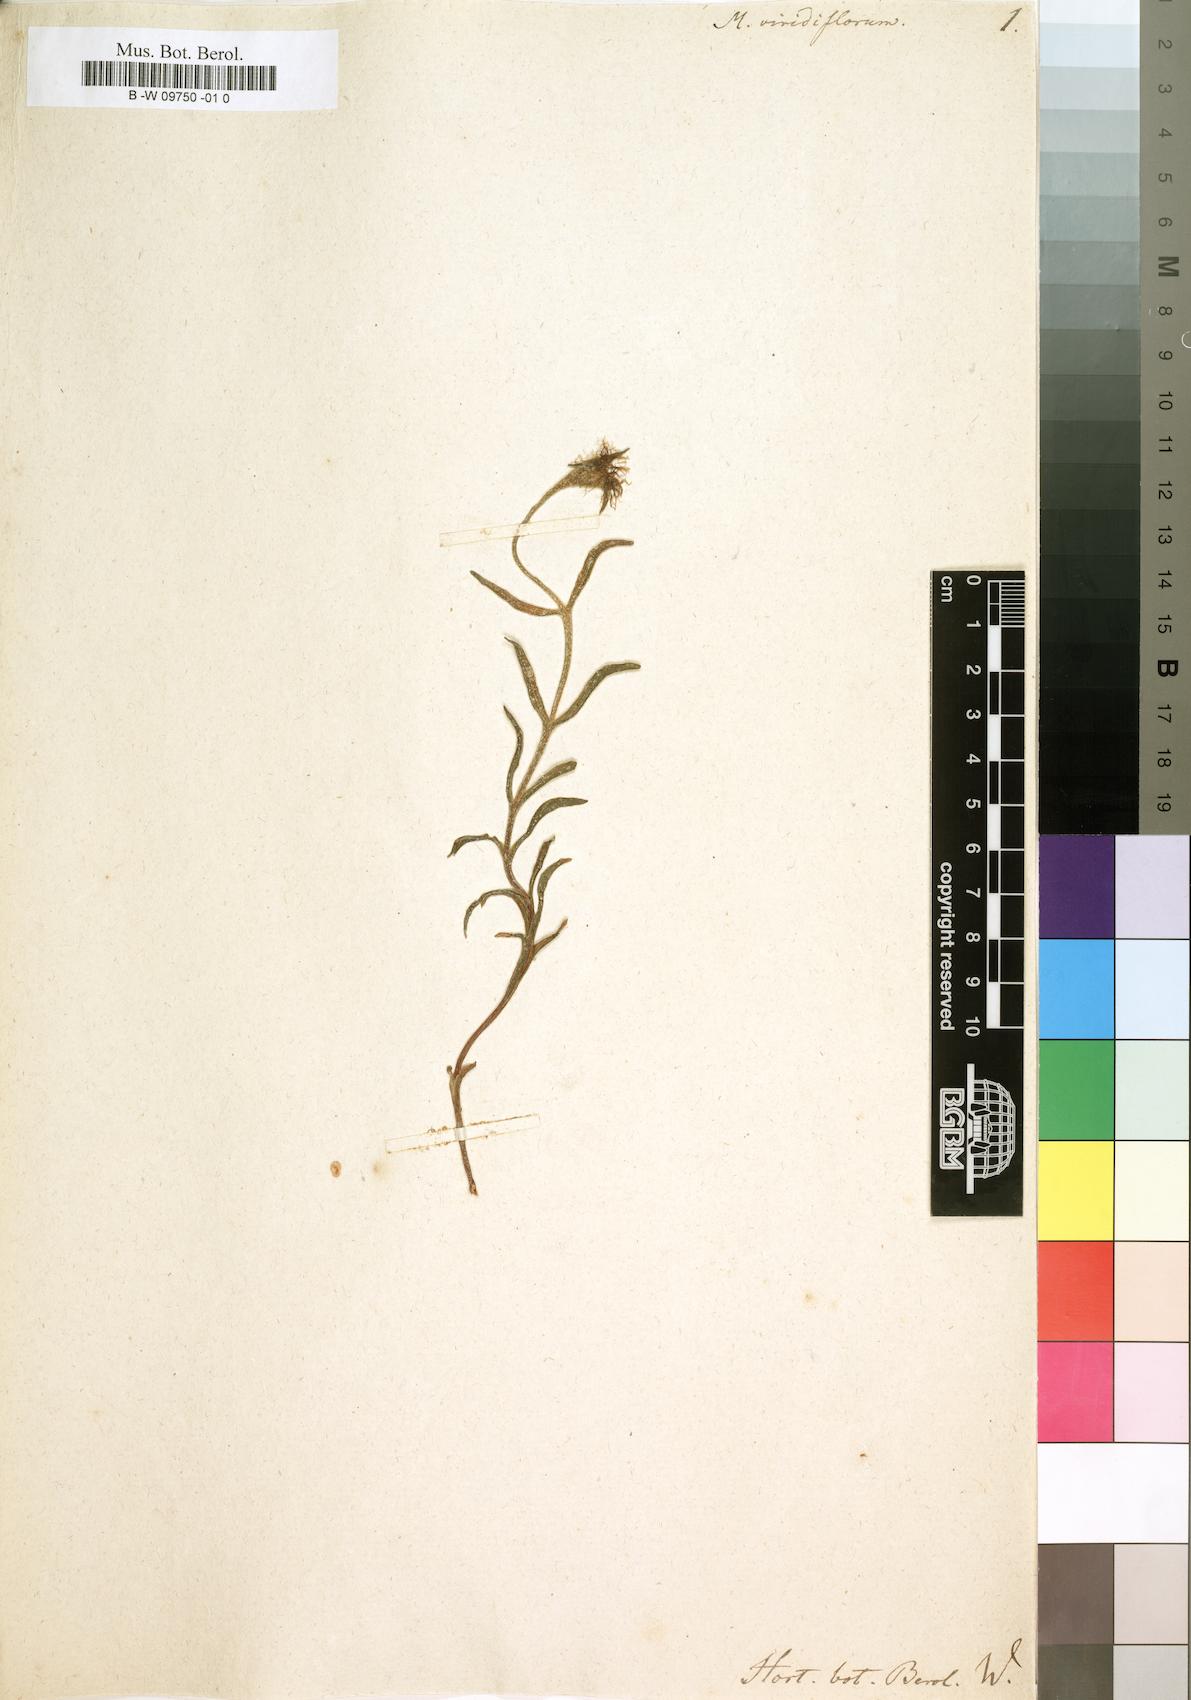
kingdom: Plantae
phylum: Tracheophyta
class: Magnoliopsida
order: Caryophyllales
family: Aizoaceae
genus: Mesembryanthemum
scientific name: Mesembryanthemum viridiflorum
